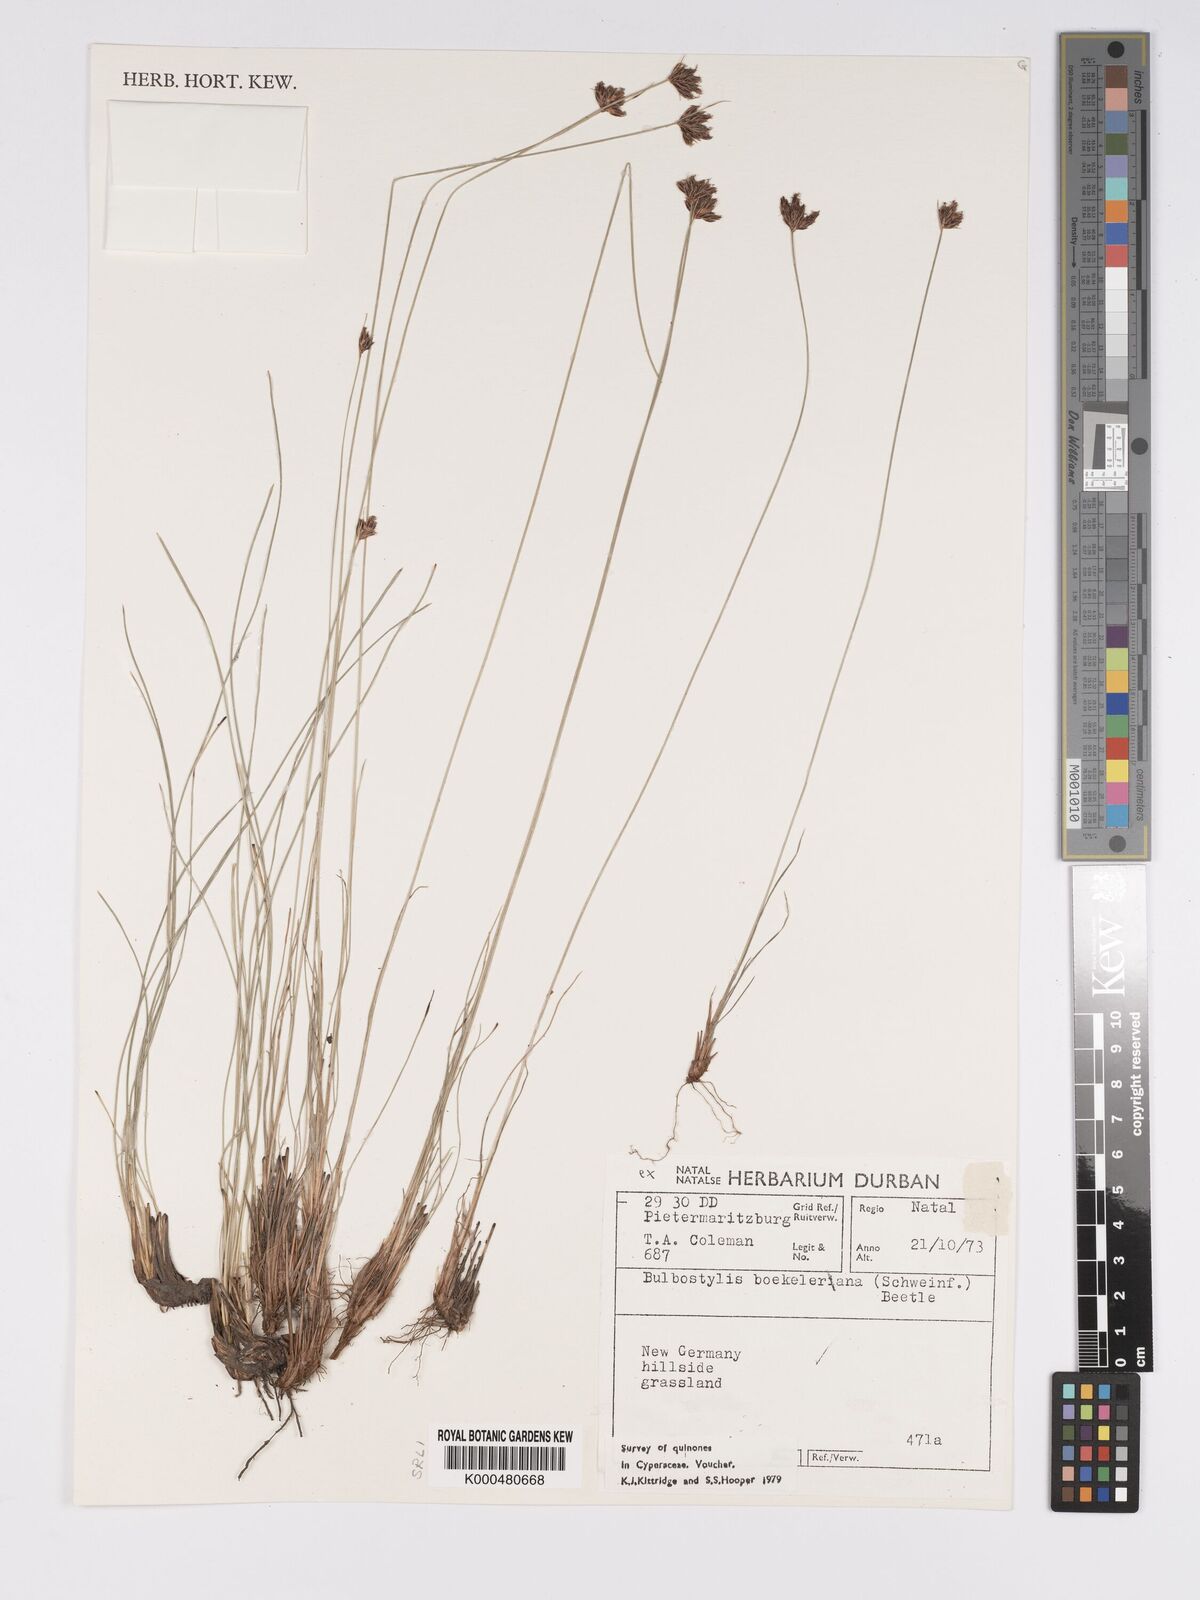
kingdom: Plantae
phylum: Tracheophyta
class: Liliopsida
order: Poales
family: Cyperaceae
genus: Bulbostylis
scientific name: Bulbostylis boeckeleriana
